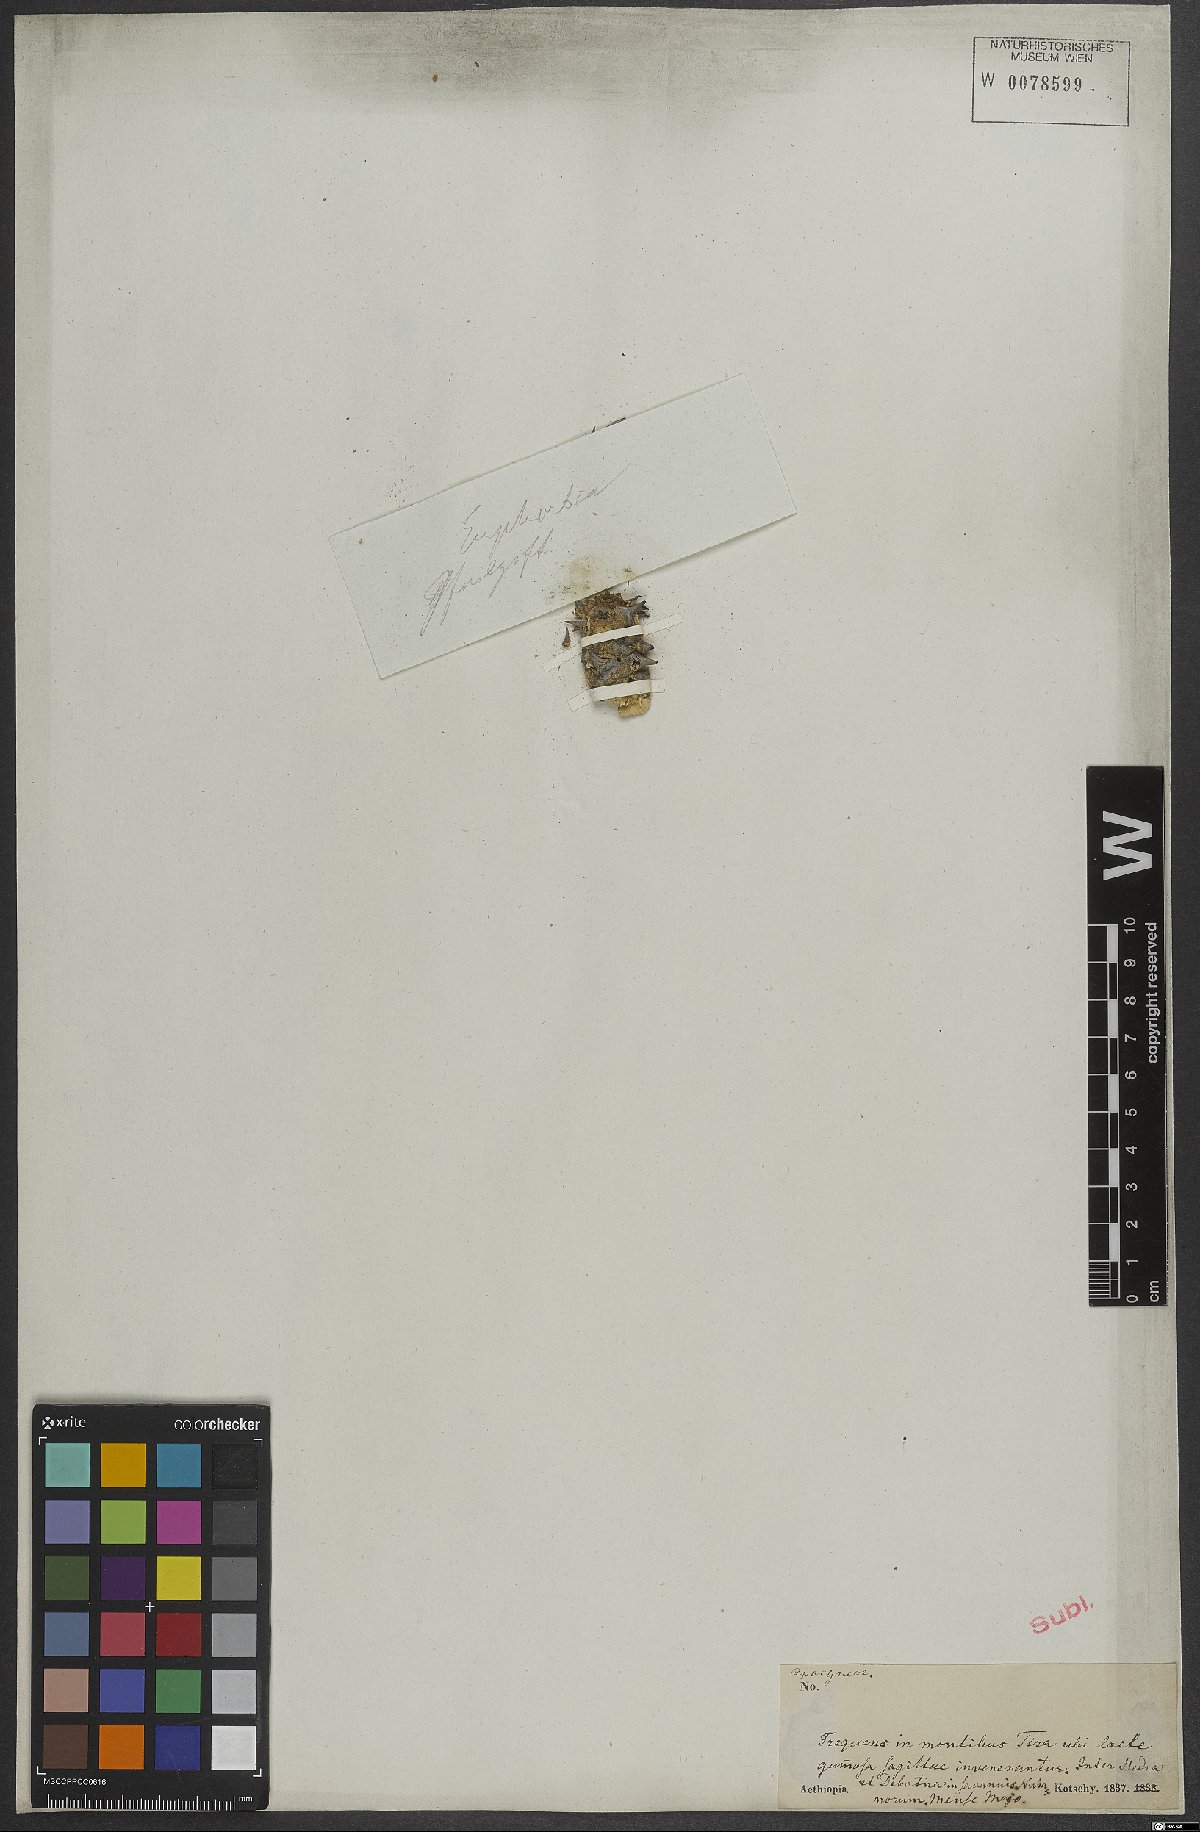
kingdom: Plantae
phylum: Tracheophyta
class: Magnoliopsida
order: Malpighiales
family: Euphorbiaceae
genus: Euphorbia
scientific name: Euphorbia
